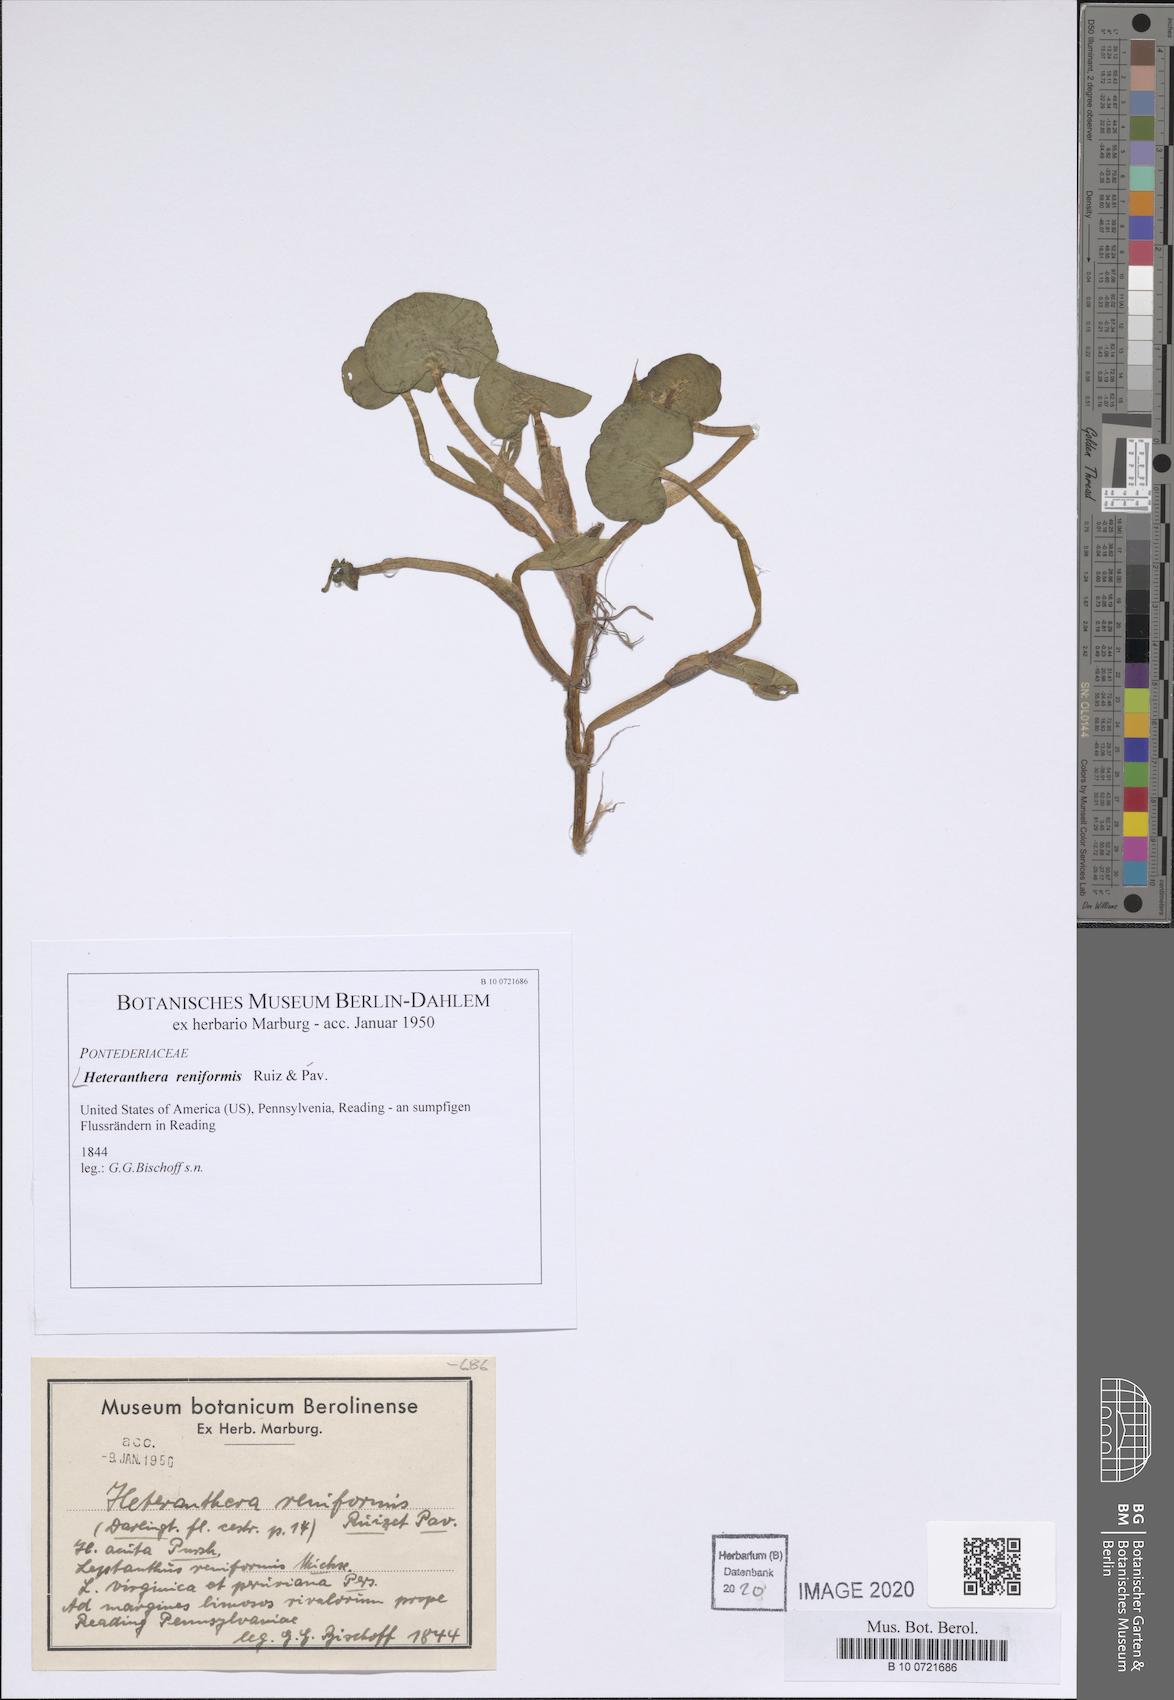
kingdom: Plantae
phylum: Tracheophyta
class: Liliopsida
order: Commelinales
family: Pontederiaceae
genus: Heteranthera
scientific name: Heteranthera reniformis
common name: Kidneyleaf mudplantain
